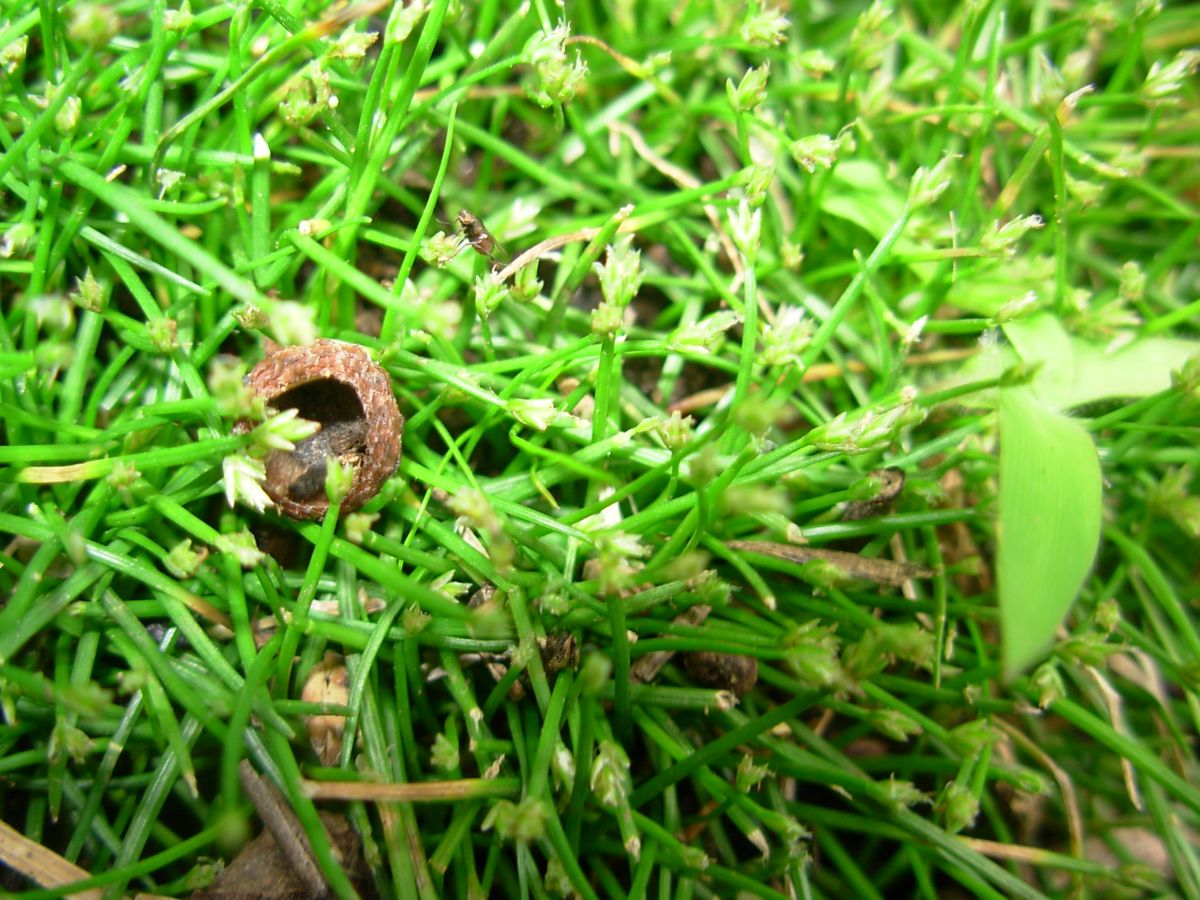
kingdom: Plantae
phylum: Tracheophyta
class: Liliopsida
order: Poales
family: Cyperaceae
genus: Eleocharis
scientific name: Eleocharis retroflexa
